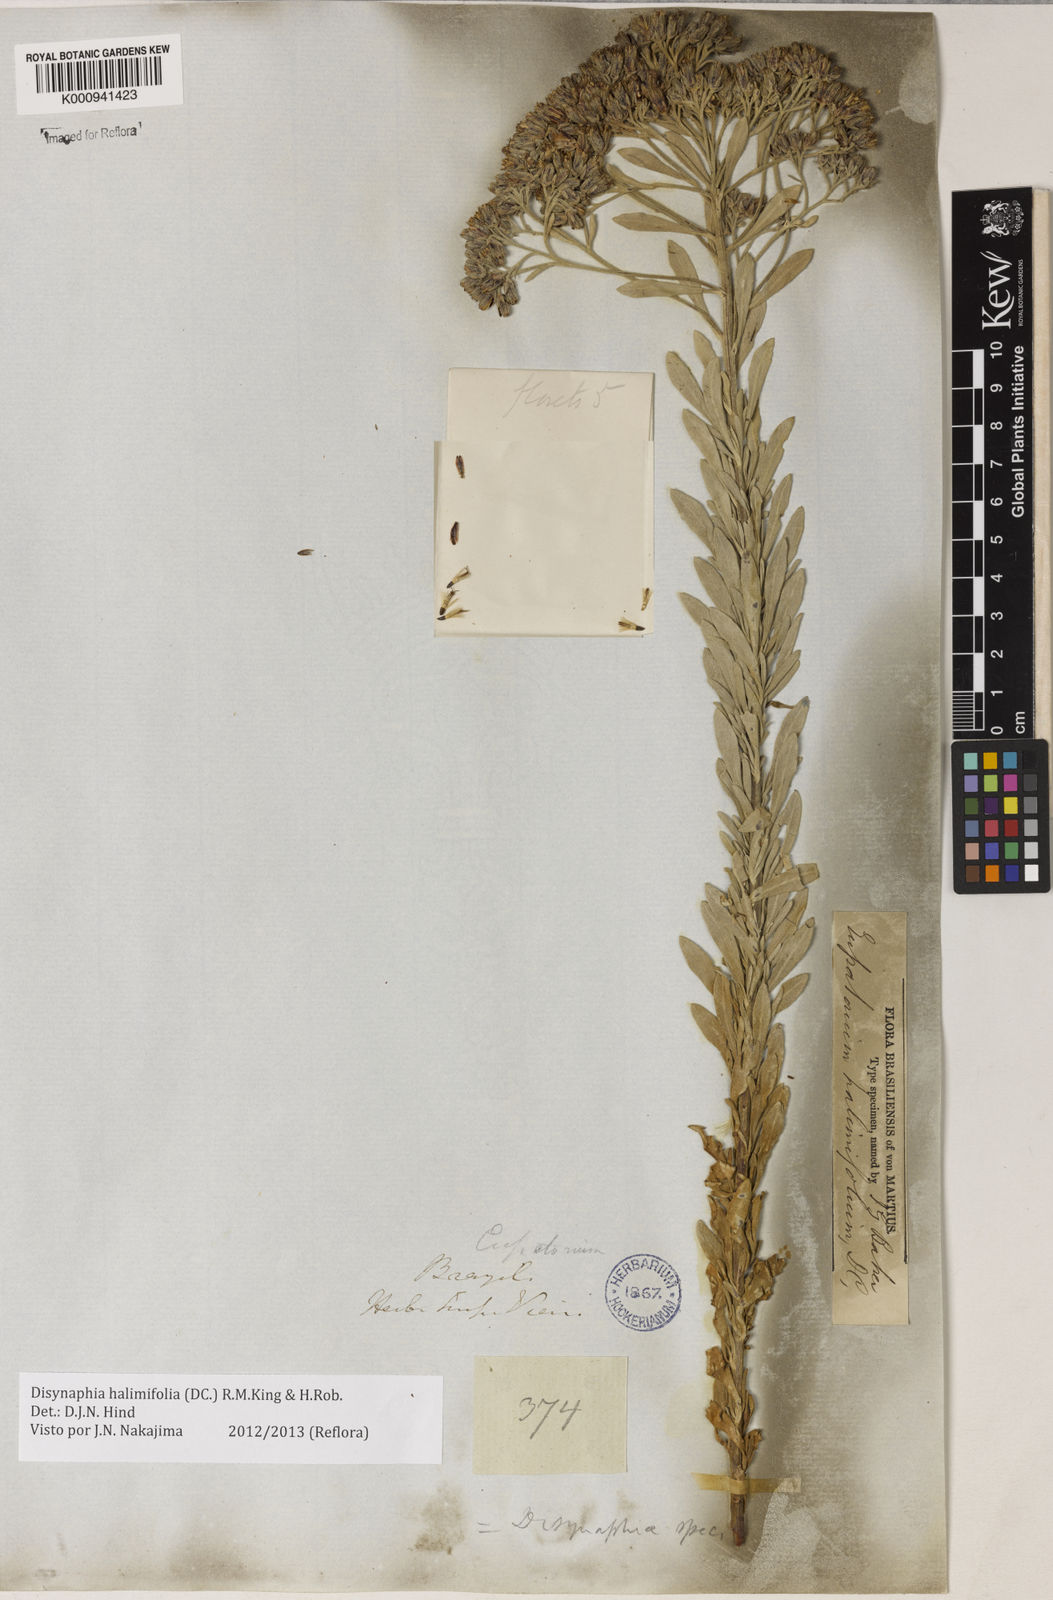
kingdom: Plantae
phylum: Tracheophyta
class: Magnoliopsida
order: Asterales
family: Asteraceae
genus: Disynaphia
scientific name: Disynaphia halimifolia
